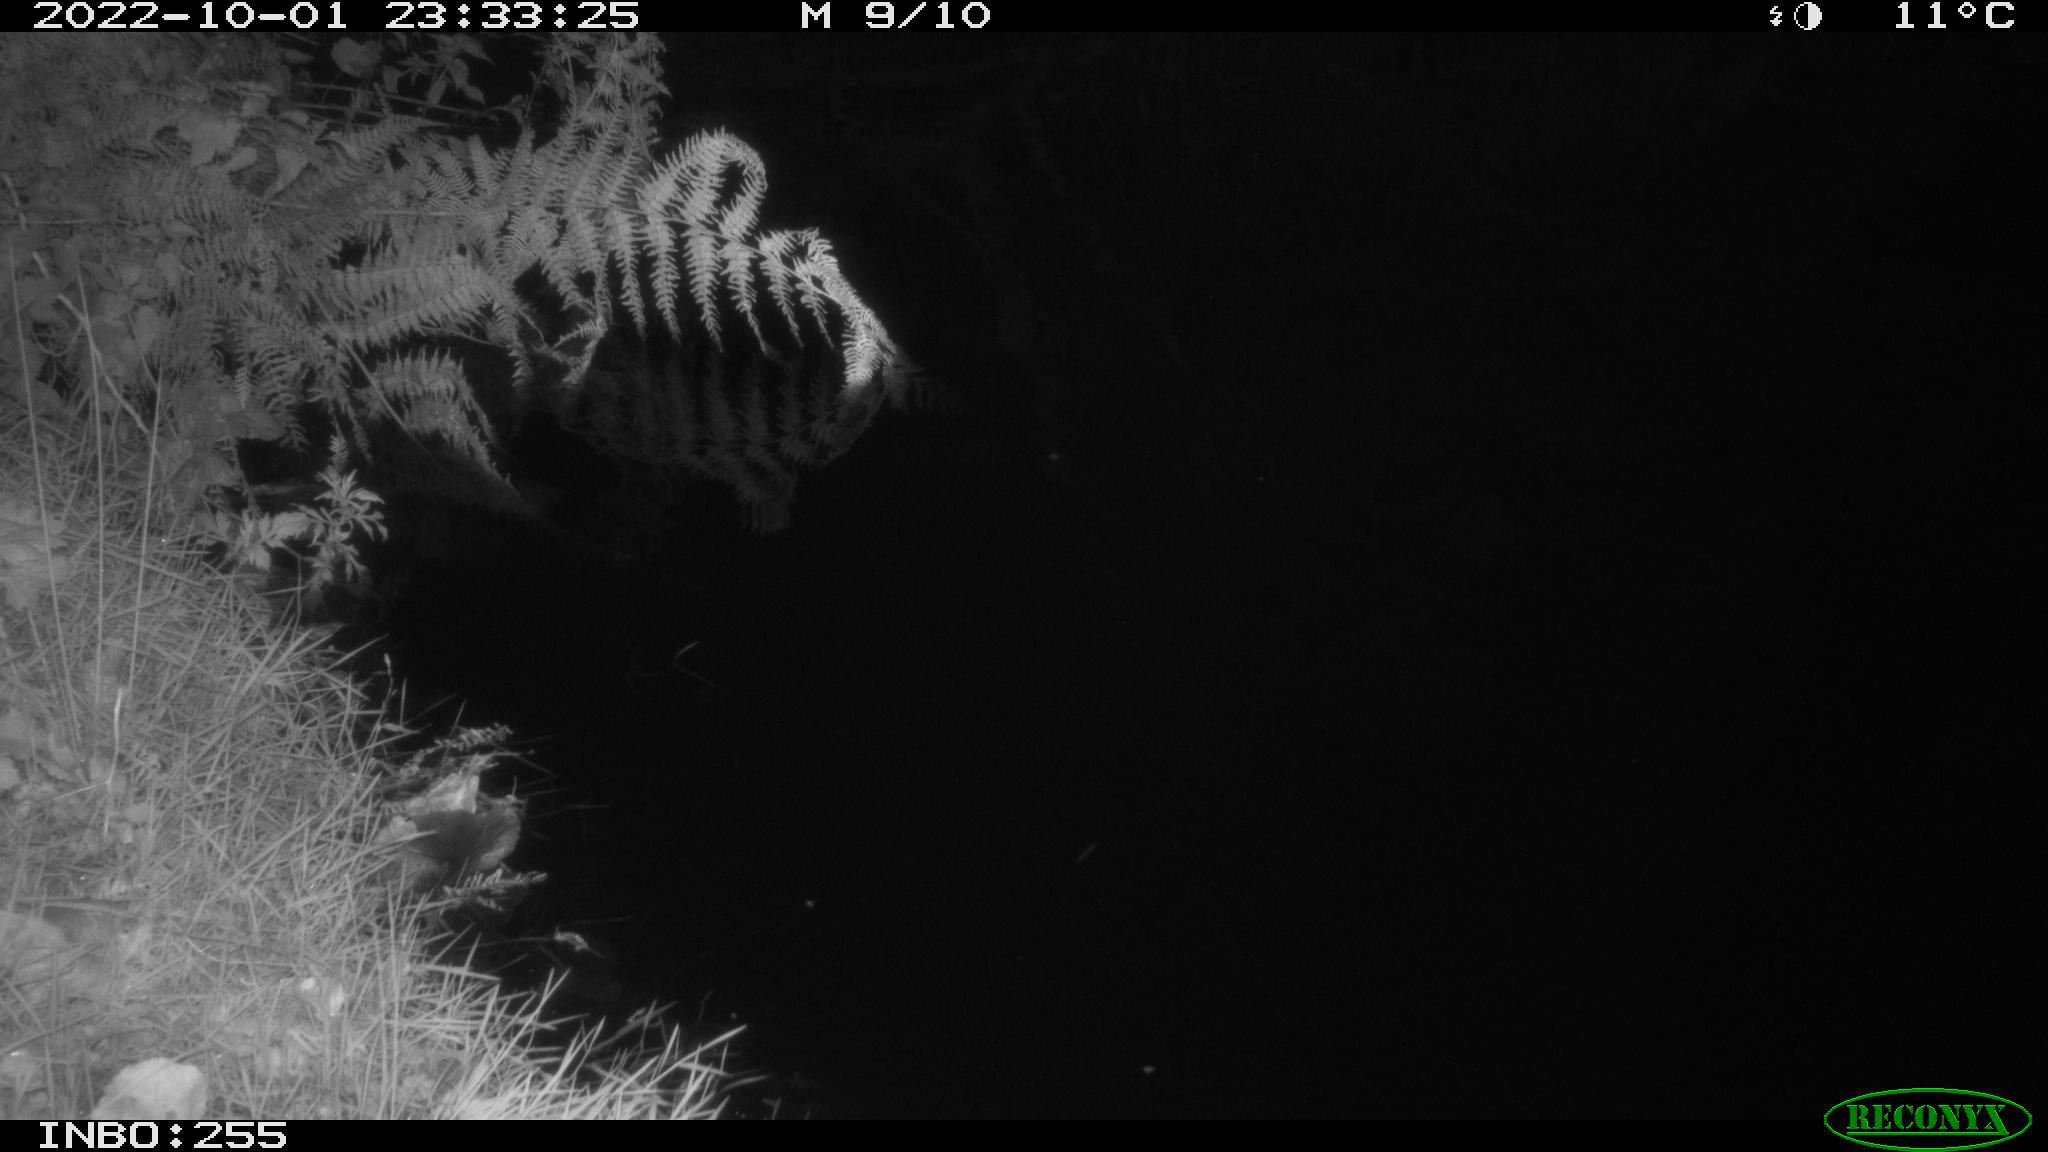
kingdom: Animalia
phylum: Chordata
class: Mammalia
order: Rodentia
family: Muridae
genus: Rattus
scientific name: Rattus norvegicus
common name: Brown rat
